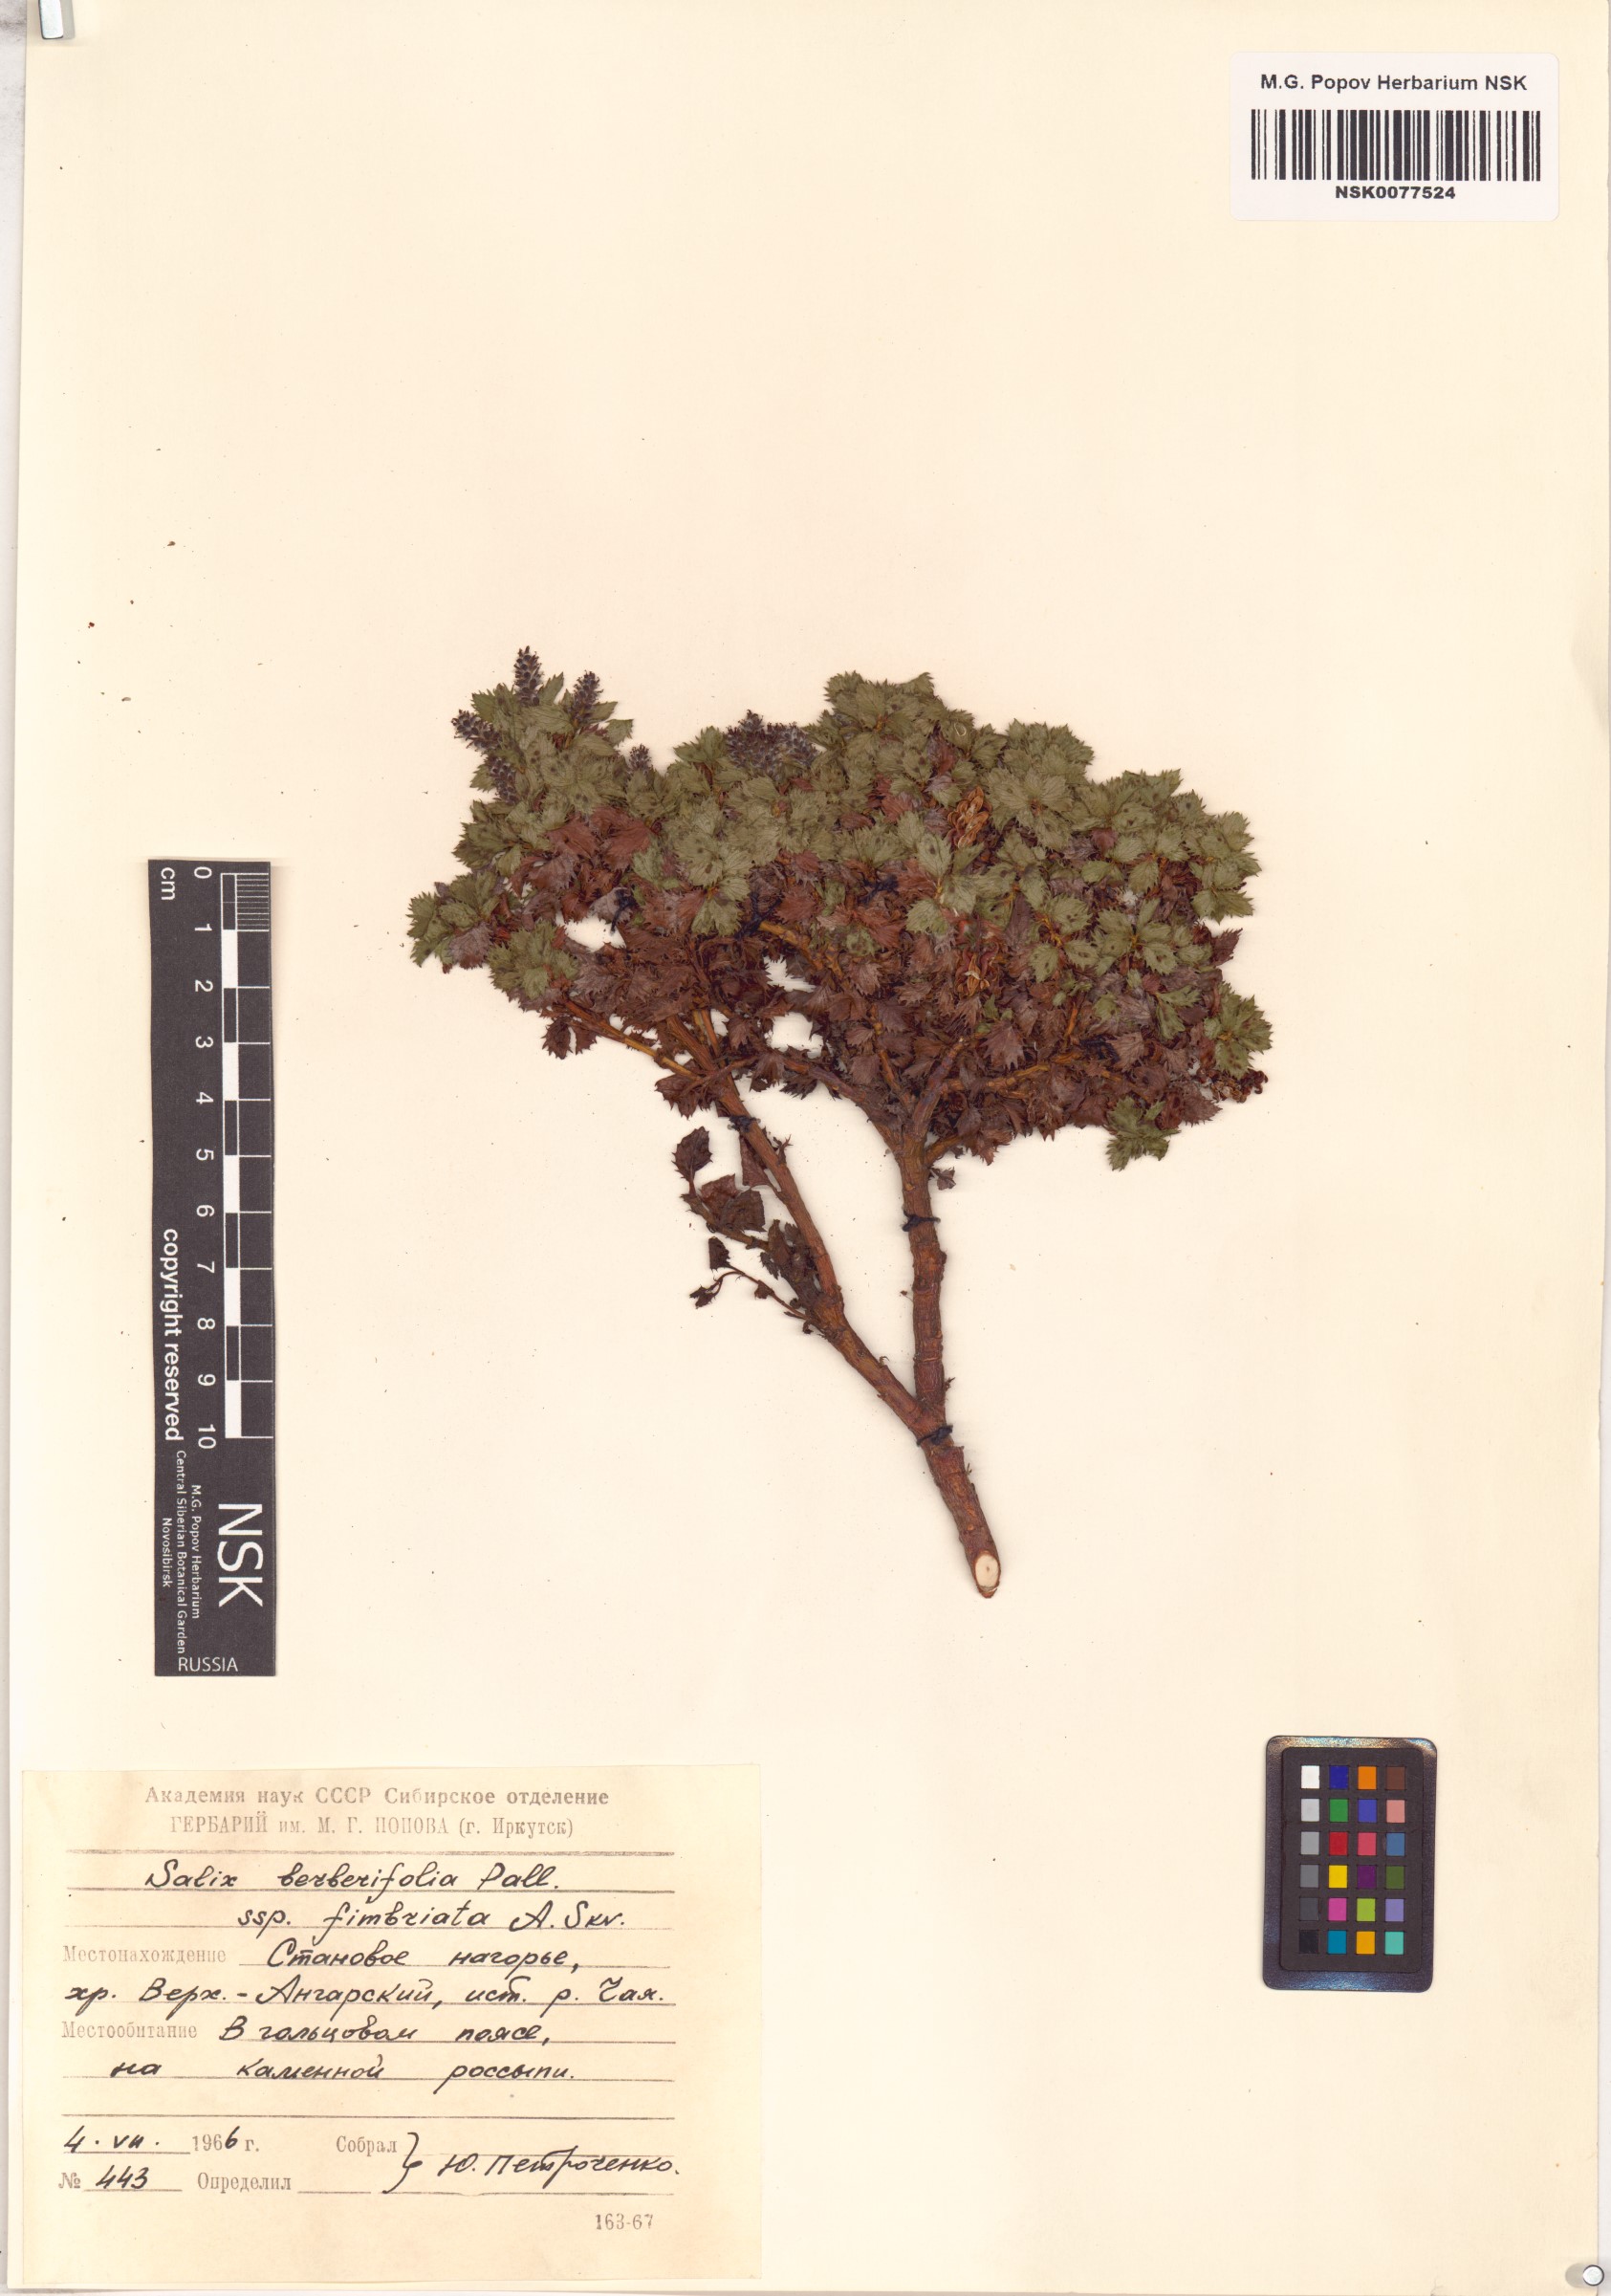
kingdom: Plantae
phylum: Tracheophyta
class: Magnoliopsida
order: Malpighiales
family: Salicaceae
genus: Salix
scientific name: Salix berberifolia
